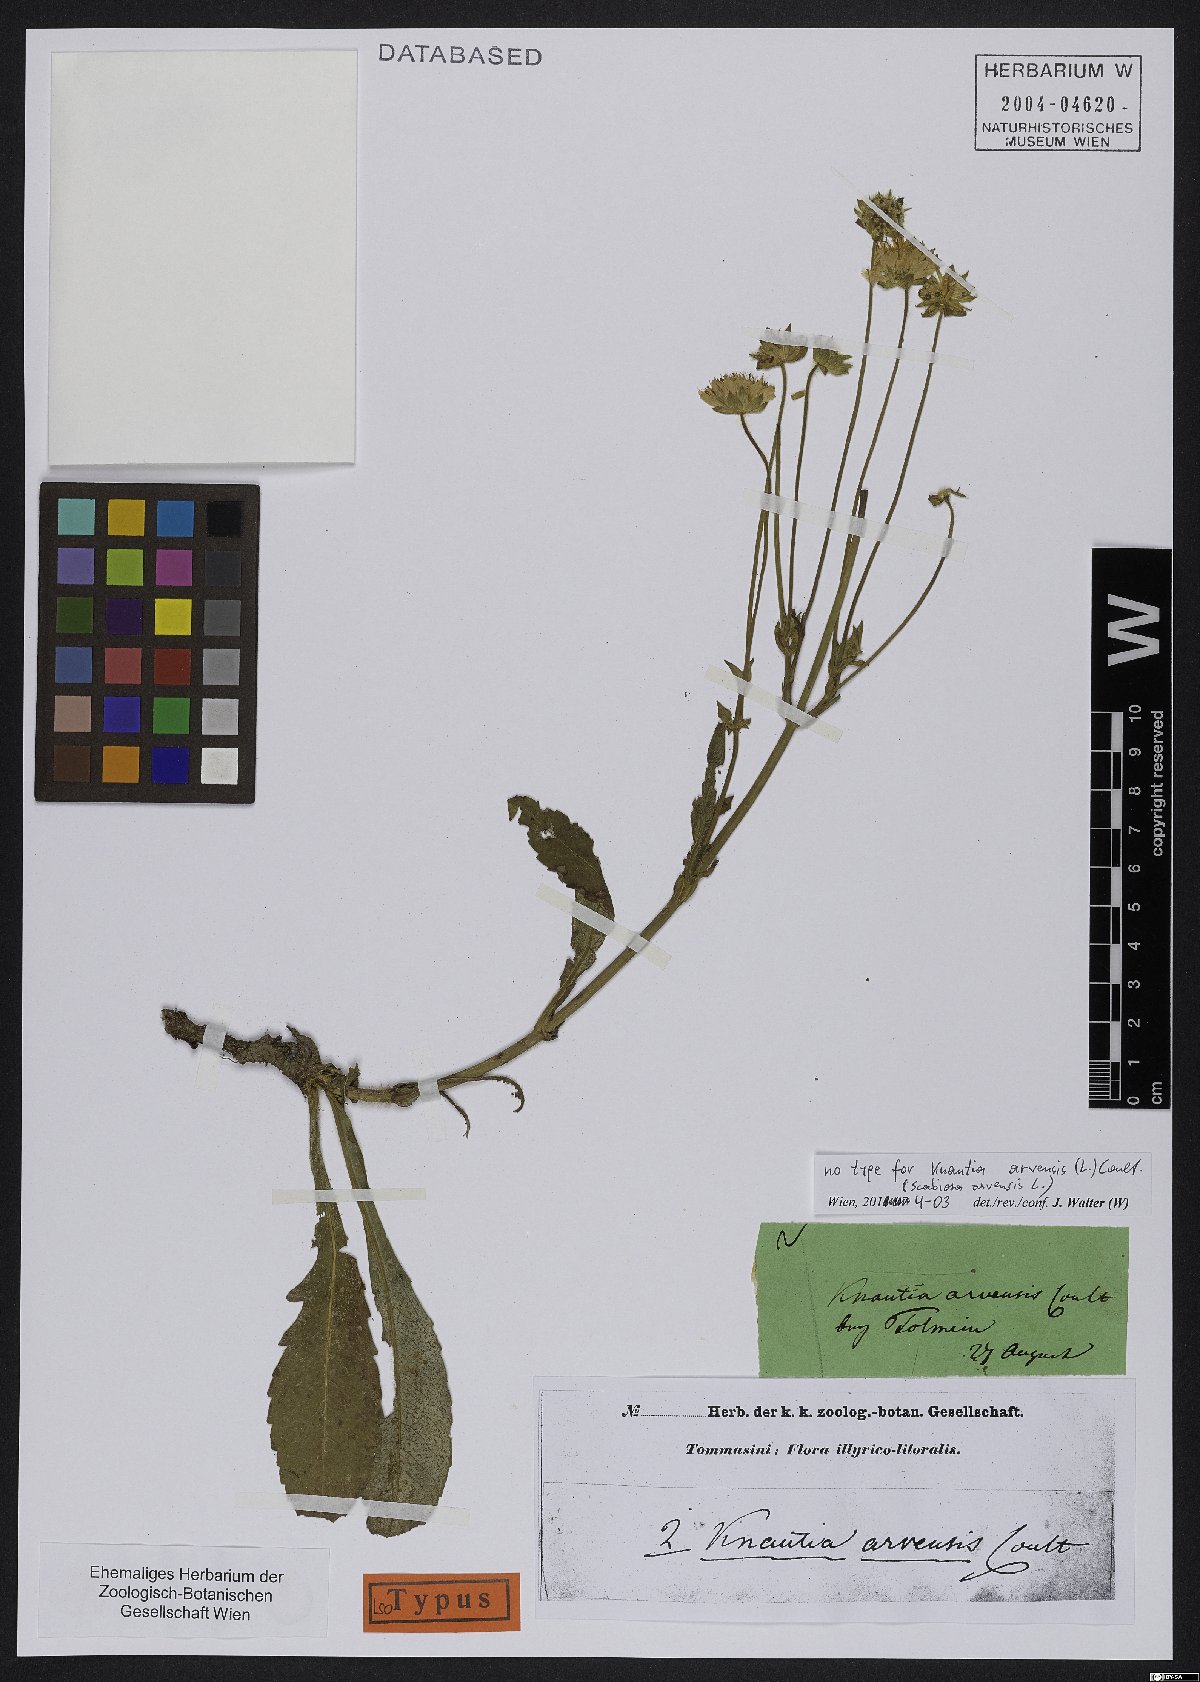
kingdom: Plantae
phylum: Tracheophyta
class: Magnoliopsida
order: Dipsacales
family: Caprifoliaceae
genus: Knautia
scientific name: Knautia arvensis
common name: Field scabiosa
